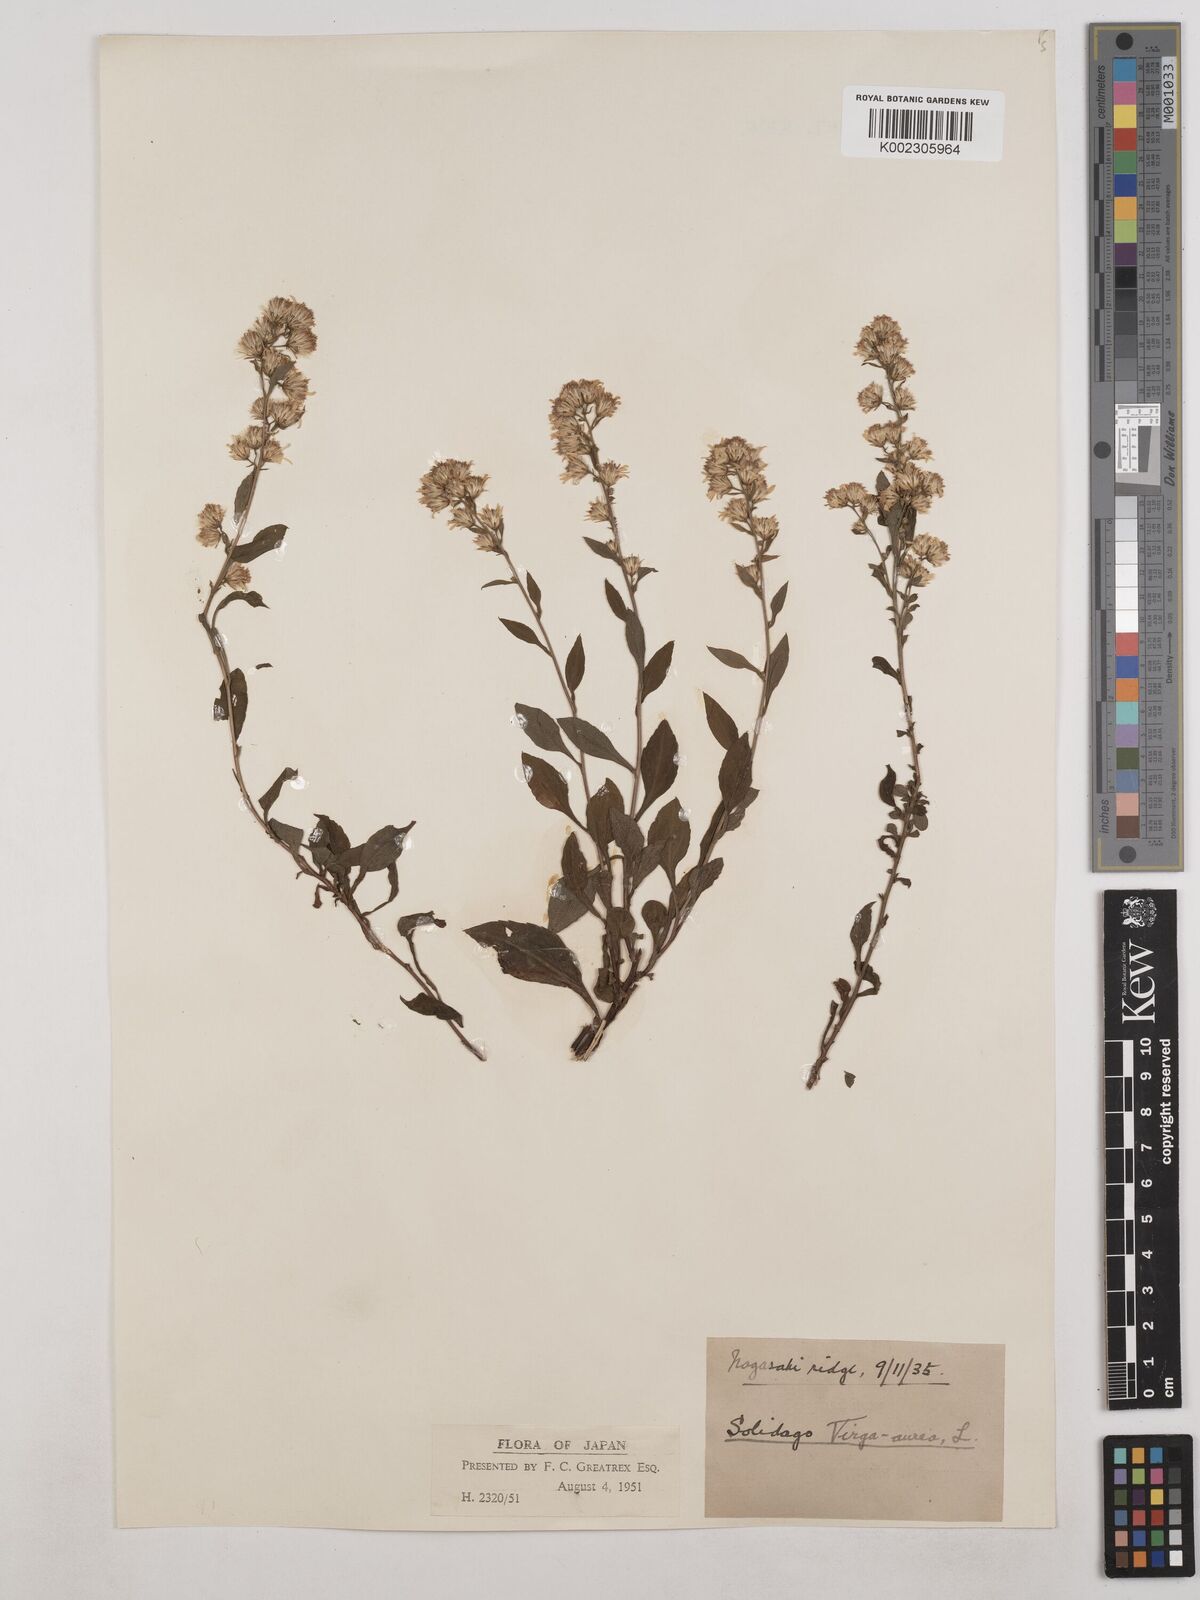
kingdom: Plantae
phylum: Tracheophyta
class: Magnoliopsida
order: Asterales
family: Asteraceae
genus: Solidago
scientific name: Solidago virgaurea
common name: Goldenrod
